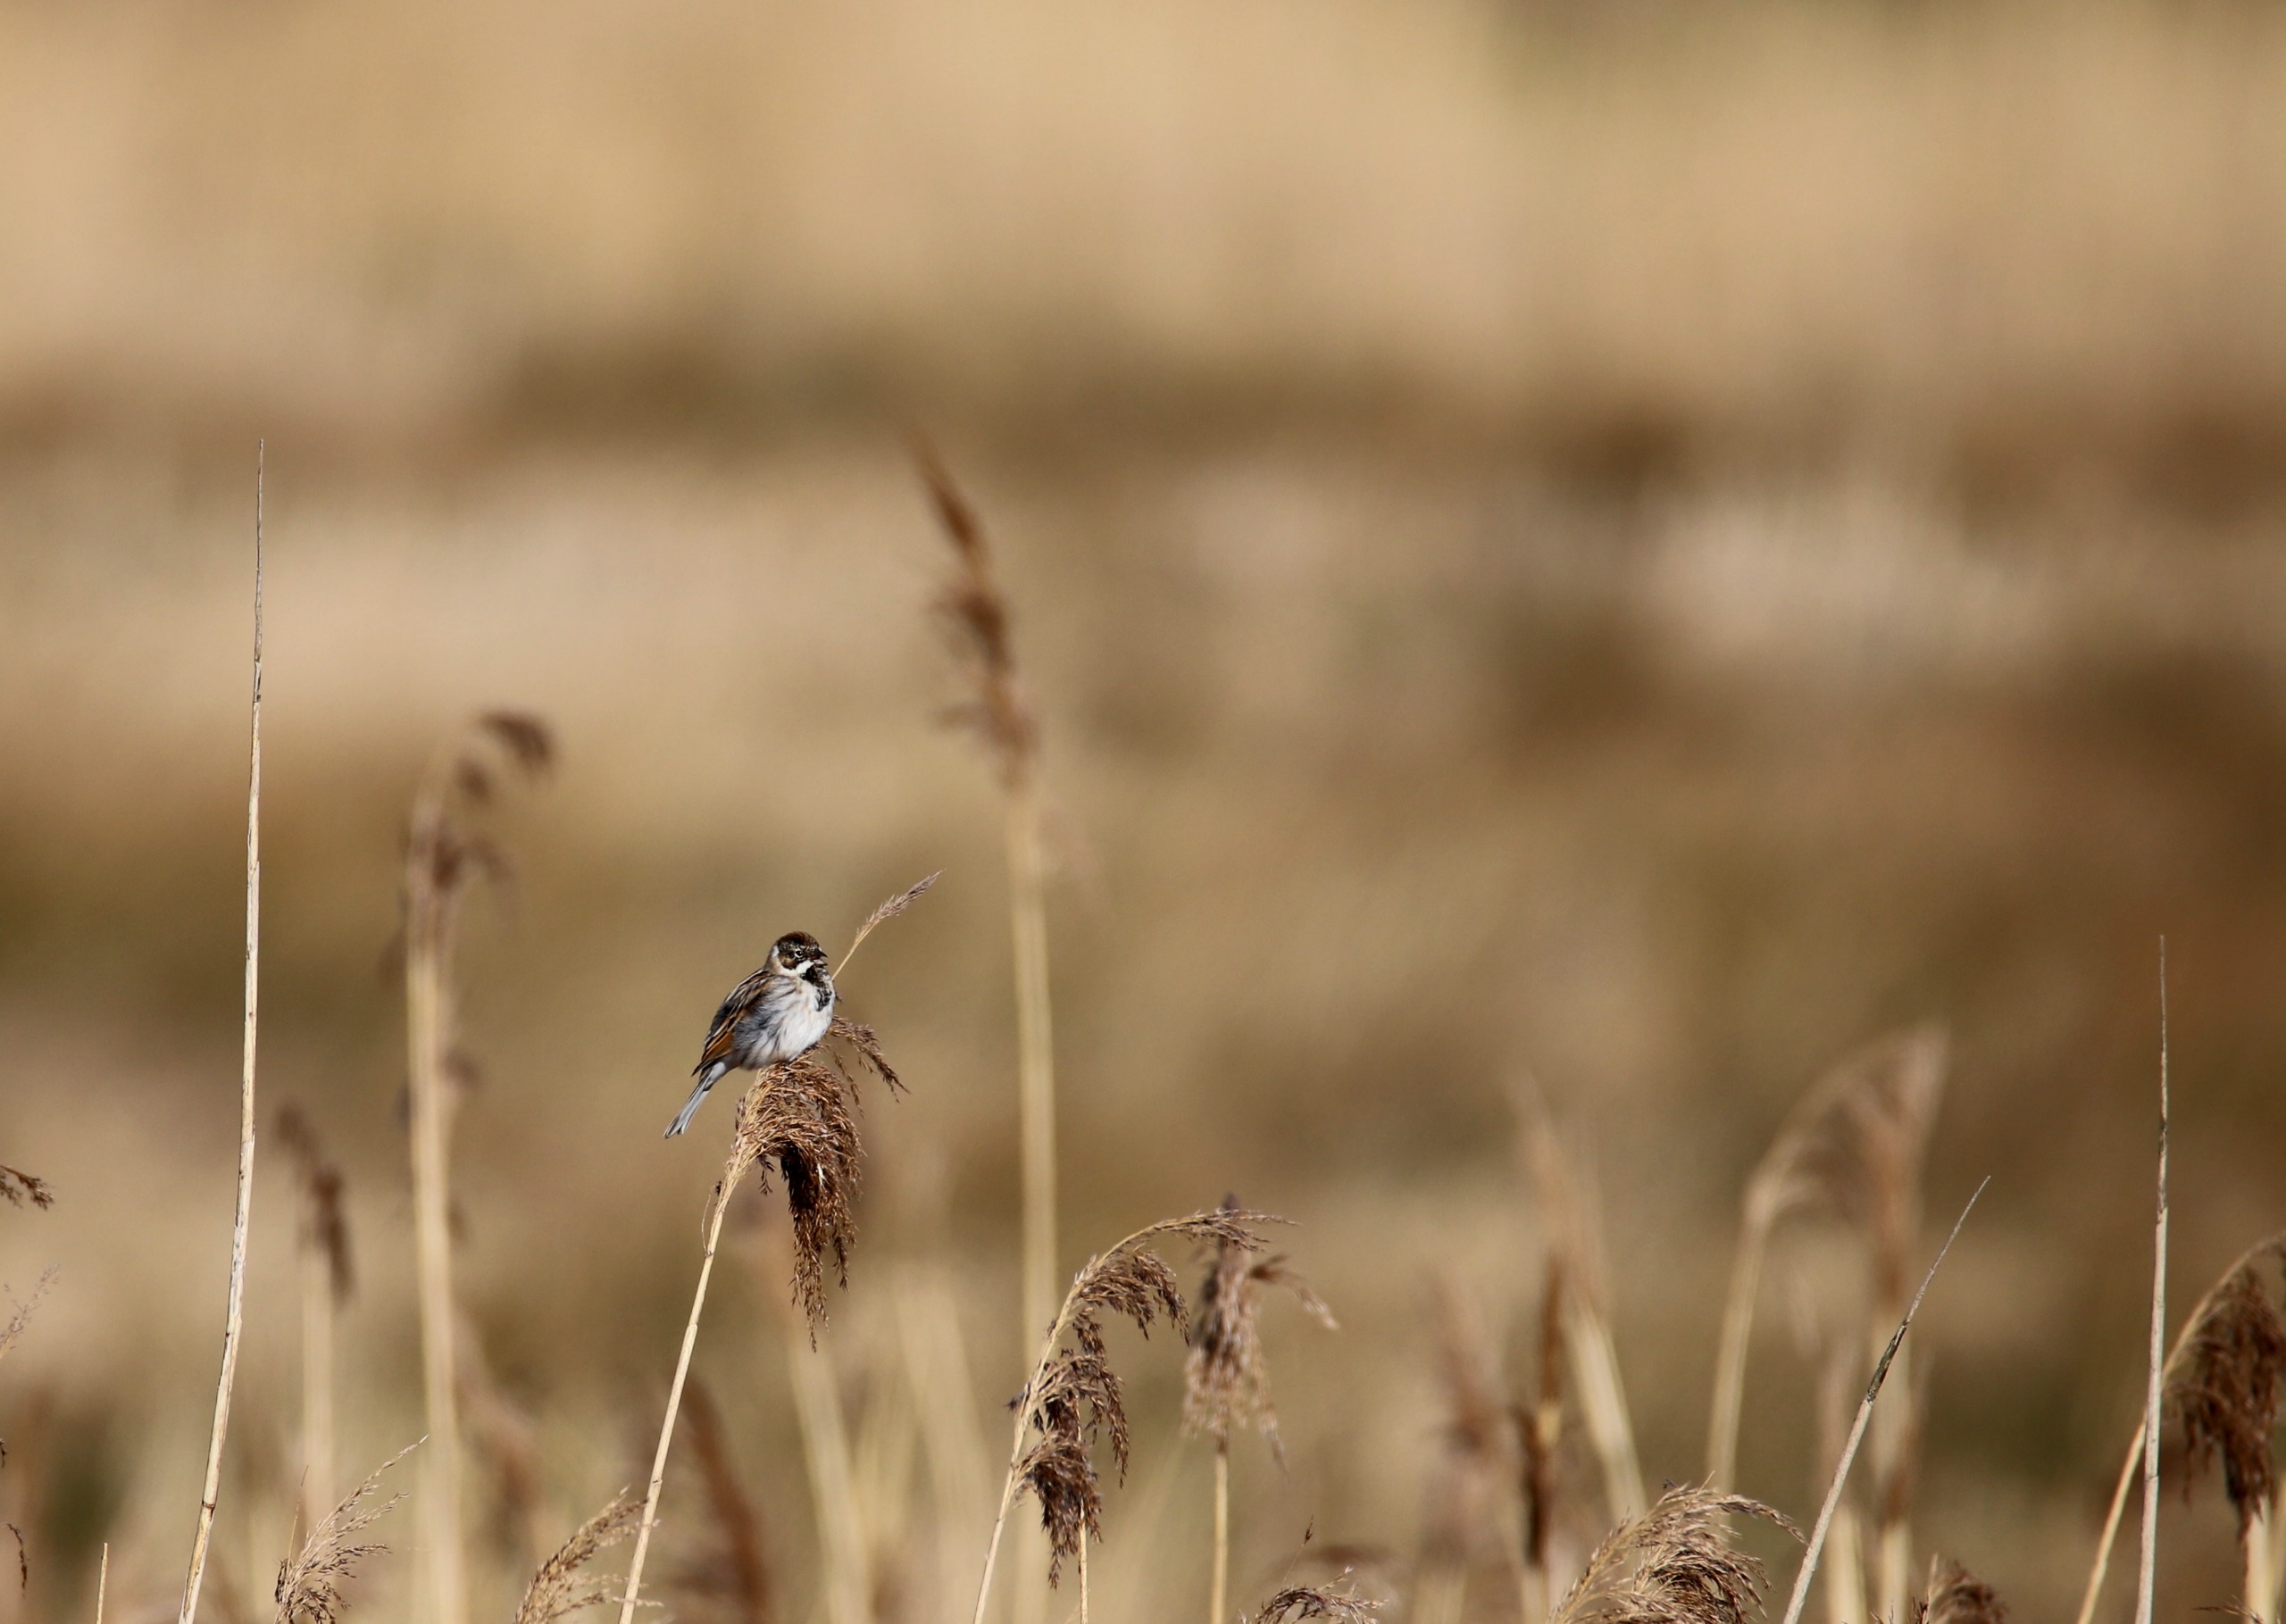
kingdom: Animalia
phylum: Chordata
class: Aves
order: Passeriformes
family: Emberizidae
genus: Emberiza
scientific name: Emberiza schoeniclus
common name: Rørspurv
